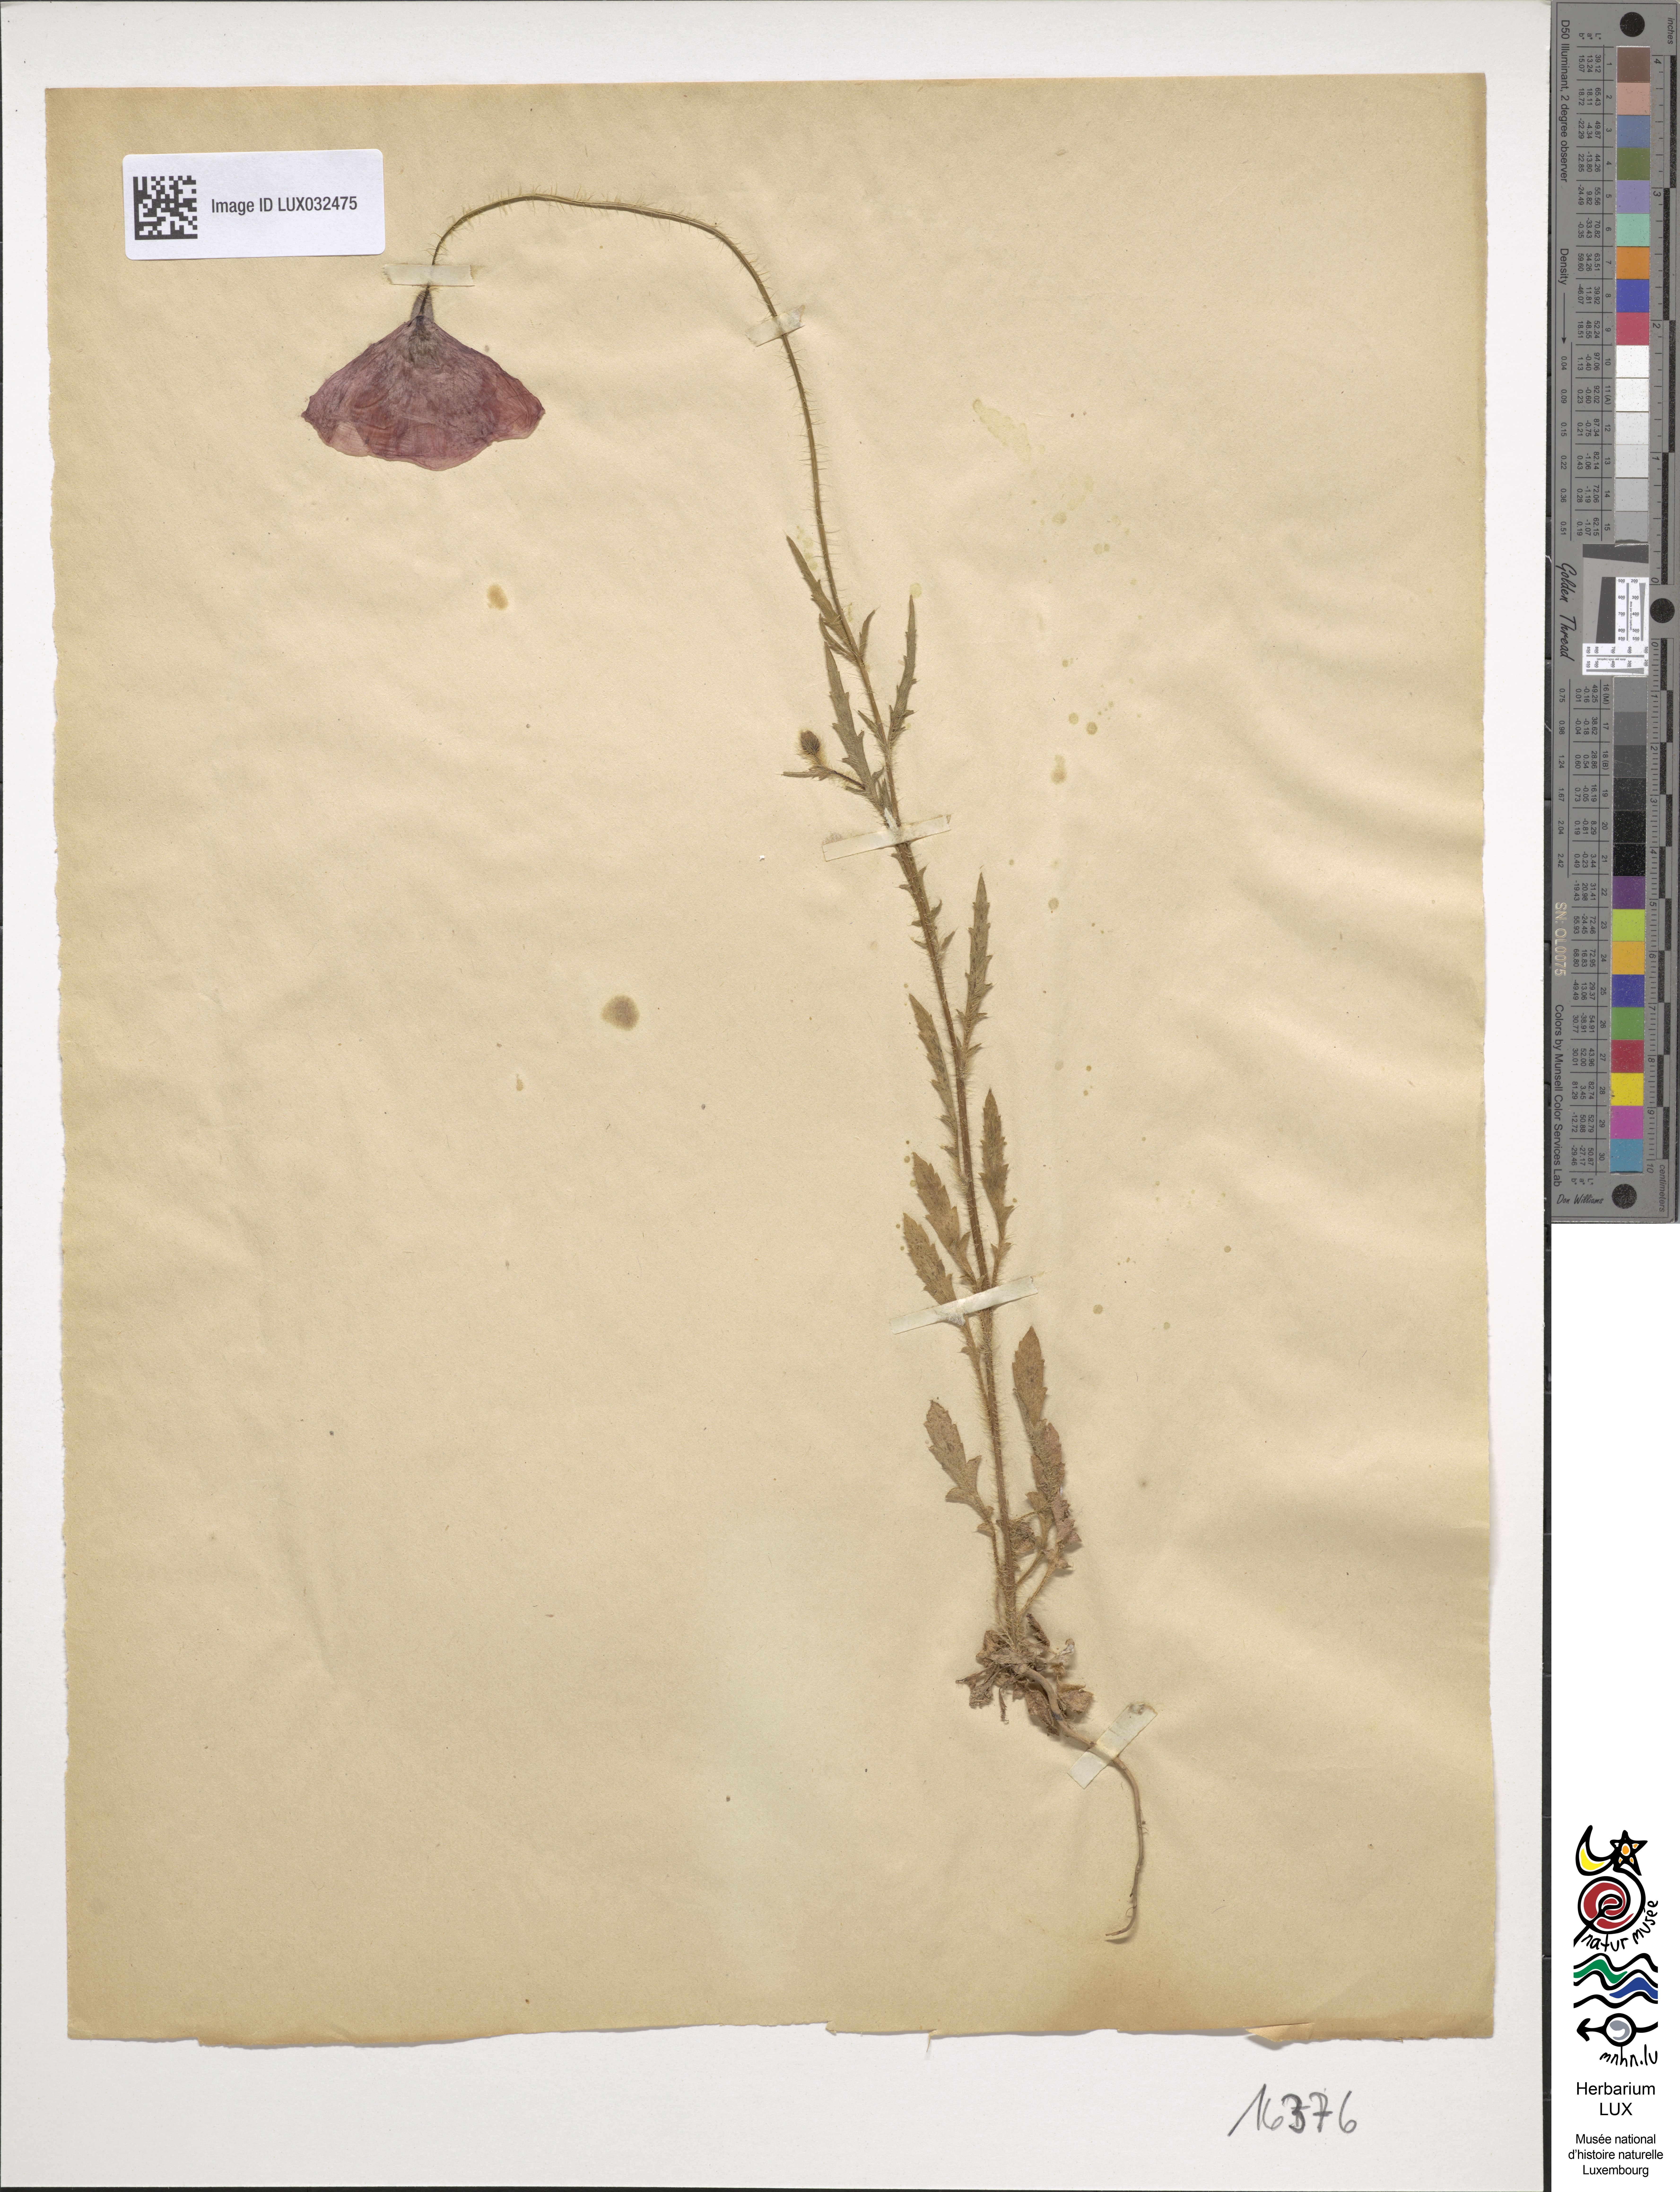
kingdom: Plantae
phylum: Tracheophyta
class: Magnoliopsida
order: Ranunculales
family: Papaveraceae
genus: Papaver
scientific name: Papaver rhoeas
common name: Corn poppy
